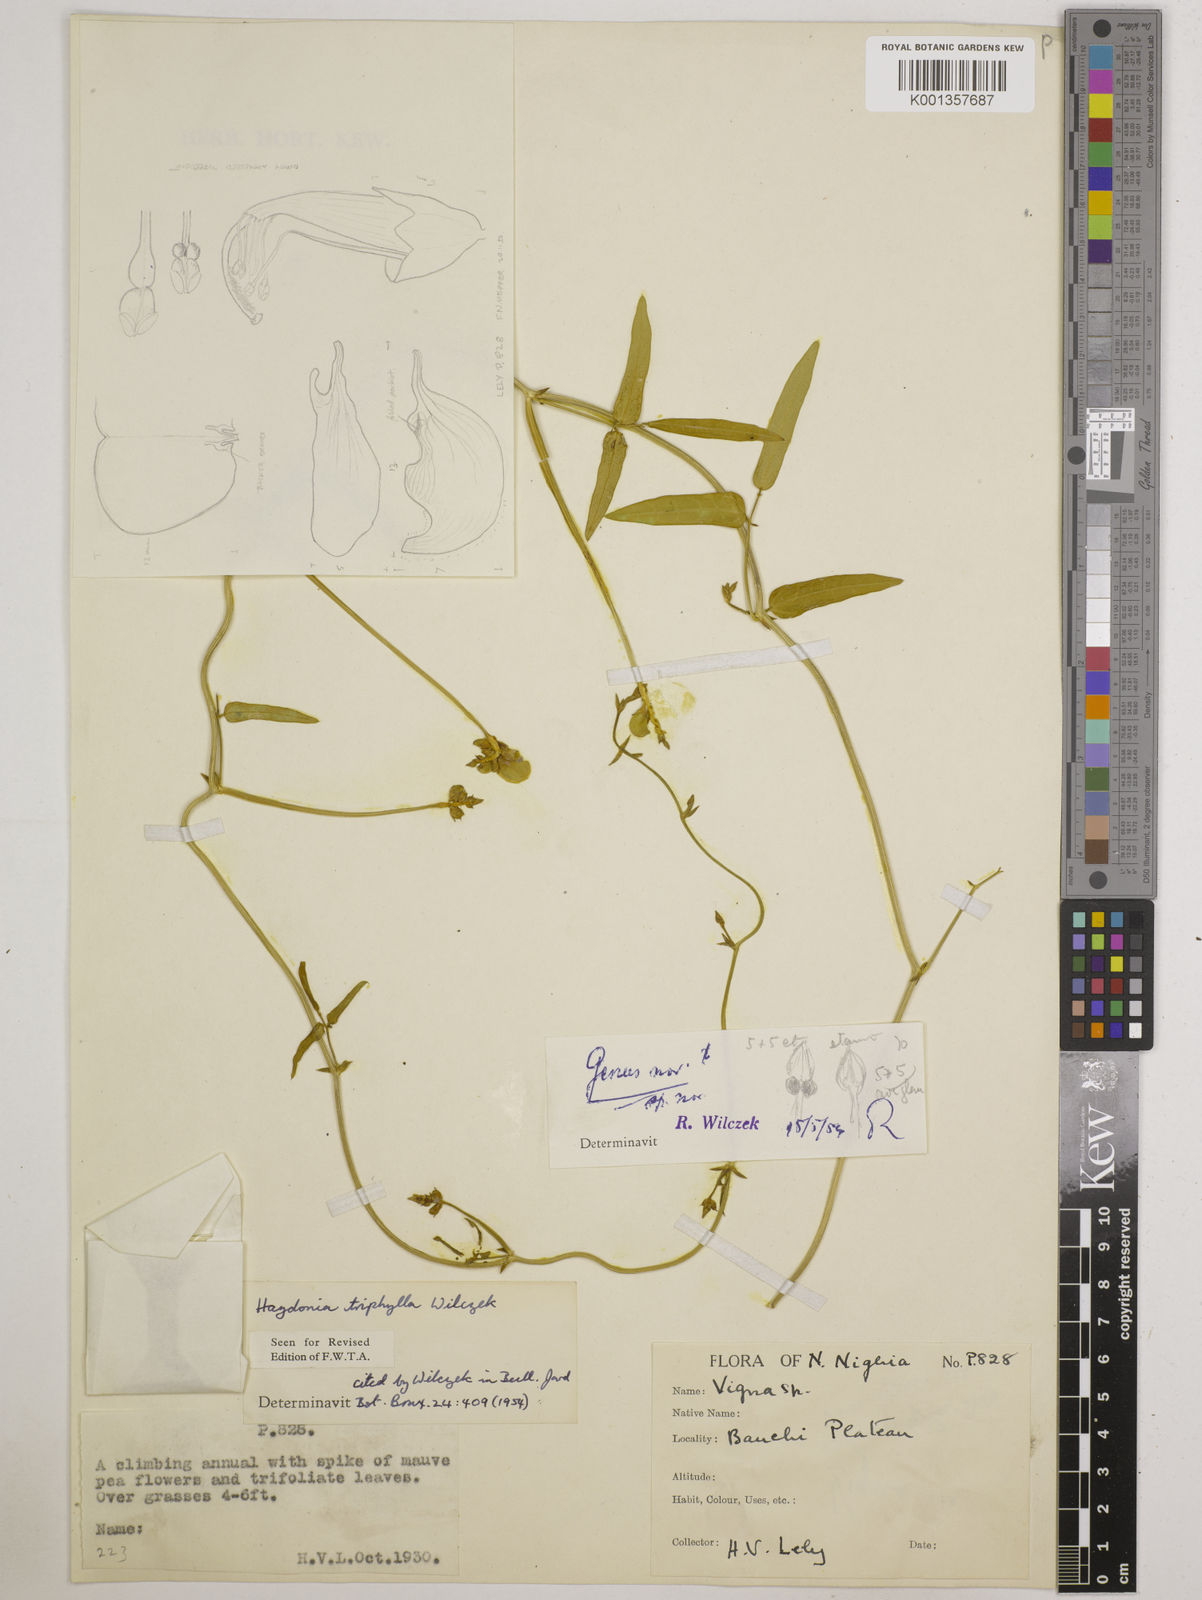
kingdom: Plantae
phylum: Tracheophyta
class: Magnoliopsida
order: Fabales
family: Fabaceae
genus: Vigna
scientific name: Vigna triphylla
